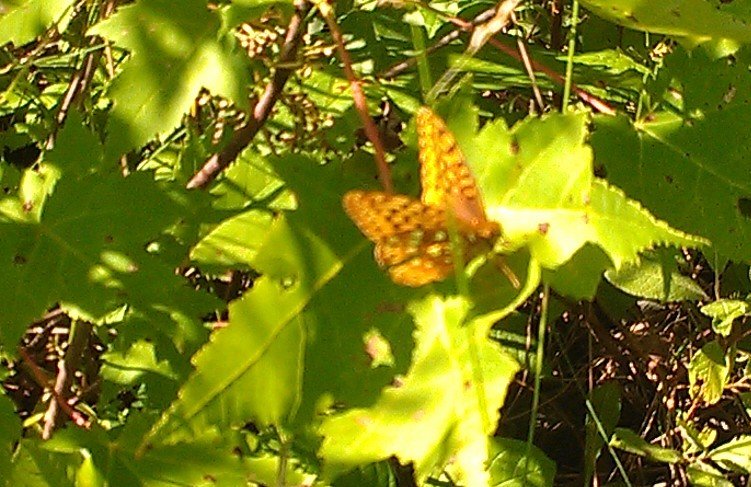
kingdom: Animalia
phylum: Arthropoda
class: Insecta
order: Lepidoptera
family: Nymphalidae
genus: Speyeria
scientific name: Speyeria cybele
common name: Great Spangled Fritillary
